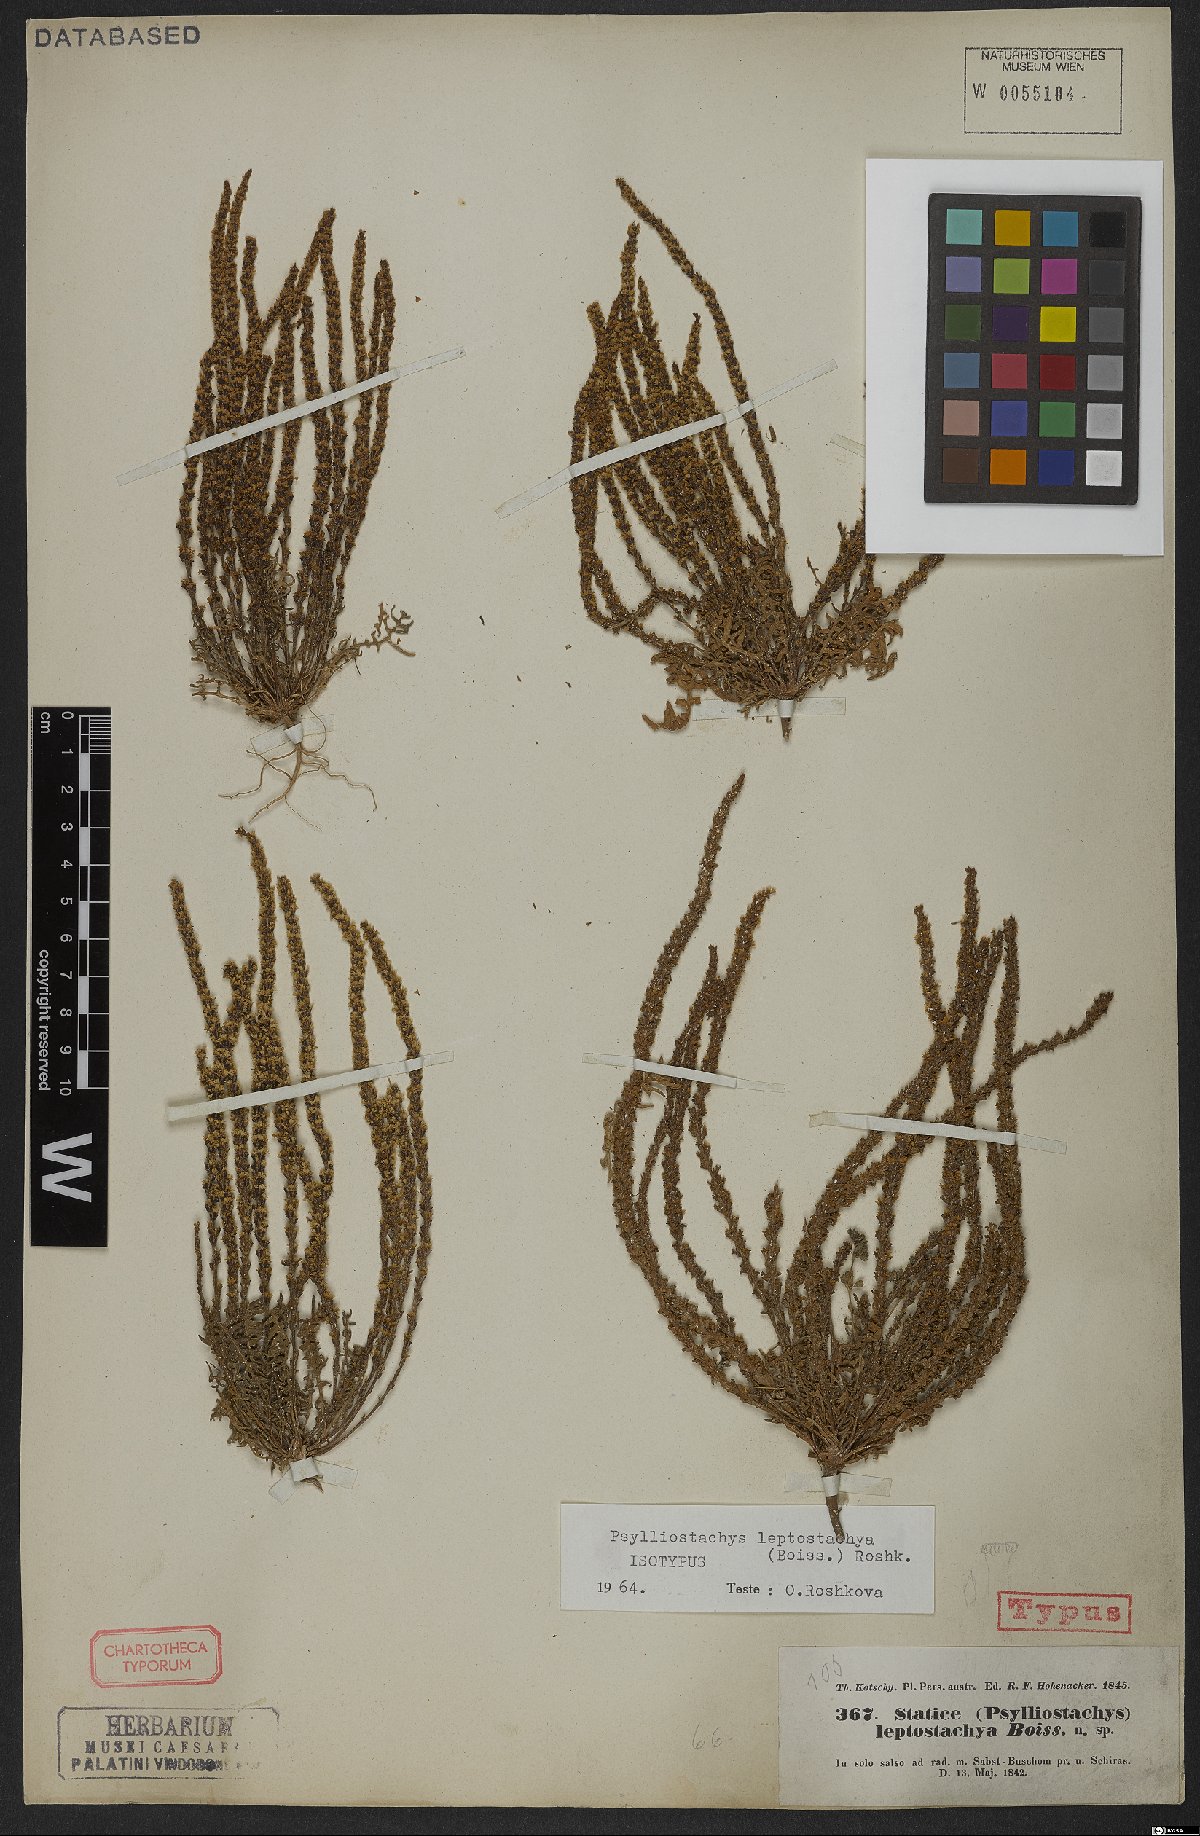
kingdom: Plantae
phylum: Tracheophyta
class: Magnoliopsida
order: Caryophyllales
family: Plumbaginaceae
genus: Psylliostachys
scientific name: Psylliostachys leptostachyus
